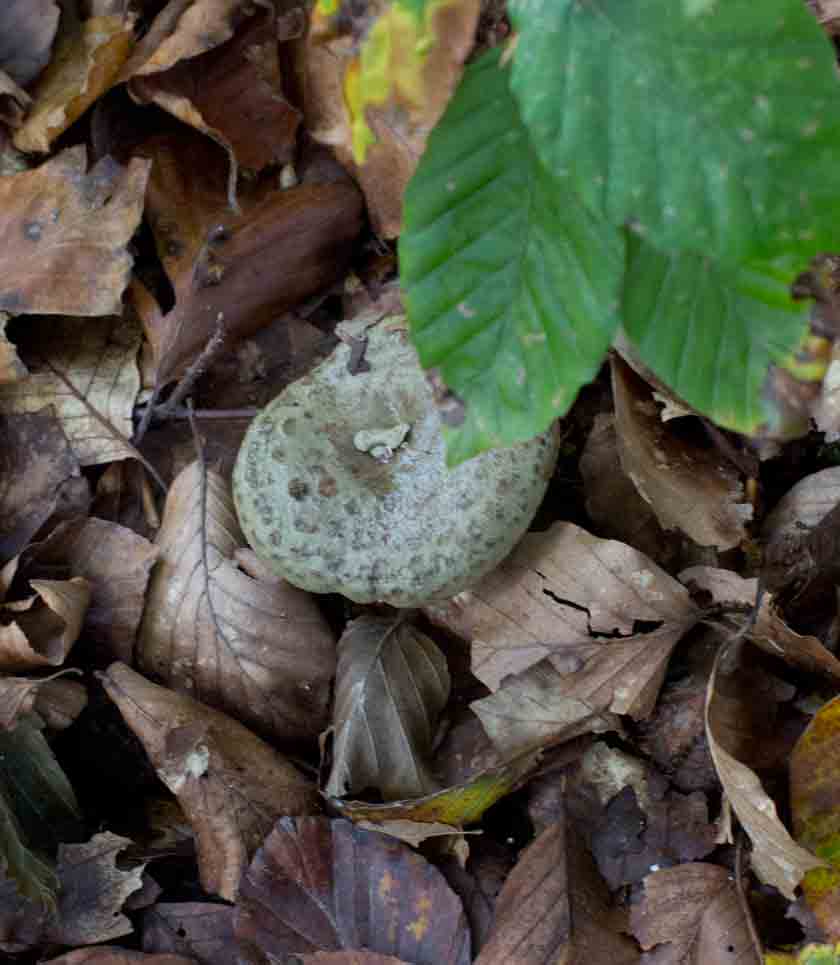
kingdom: Fungi
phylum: Basidiomycota
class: Agaricomycetes
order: Russulales
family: Russulaceae
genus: Lactarius
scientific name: Lactarius blennius
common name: dråbeplettet mælkehat
